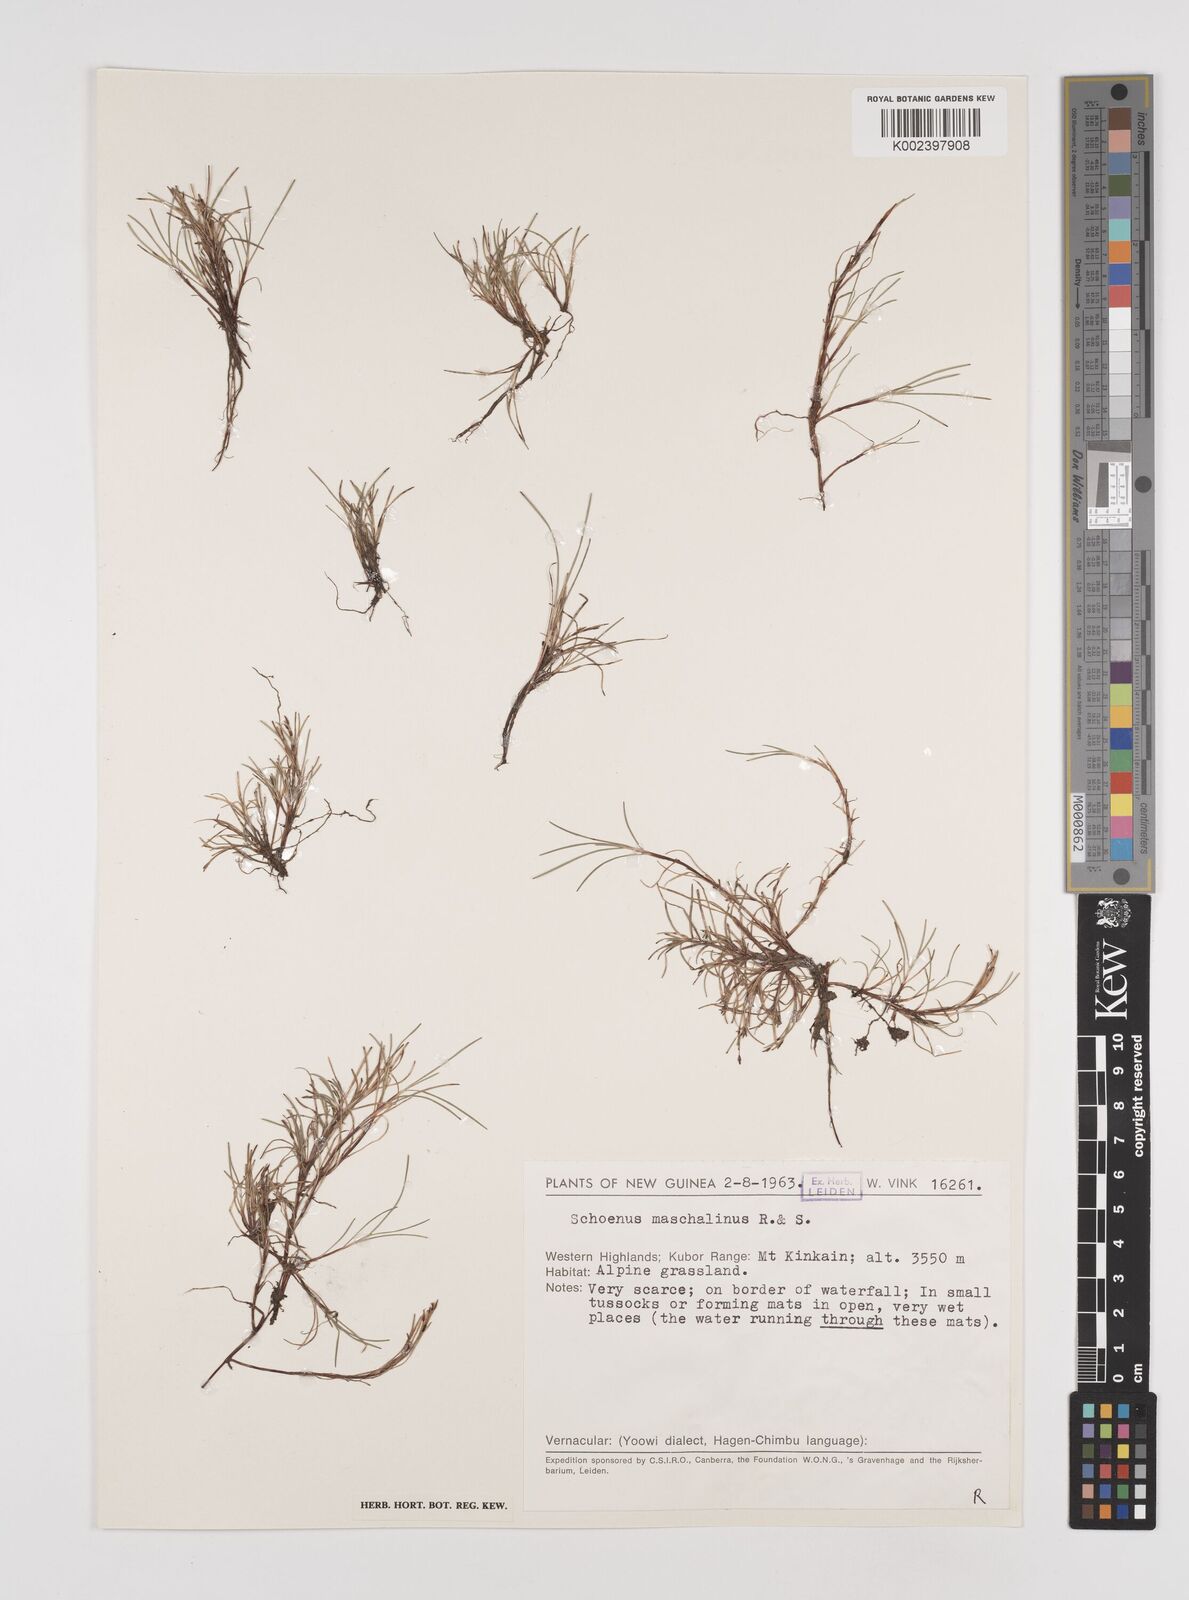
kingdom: Plantae
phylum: Tracheophyta
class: Liliopsida
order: Poales
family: Cyperaceae
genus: Schoenus
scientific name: Schoenus maschalinus
